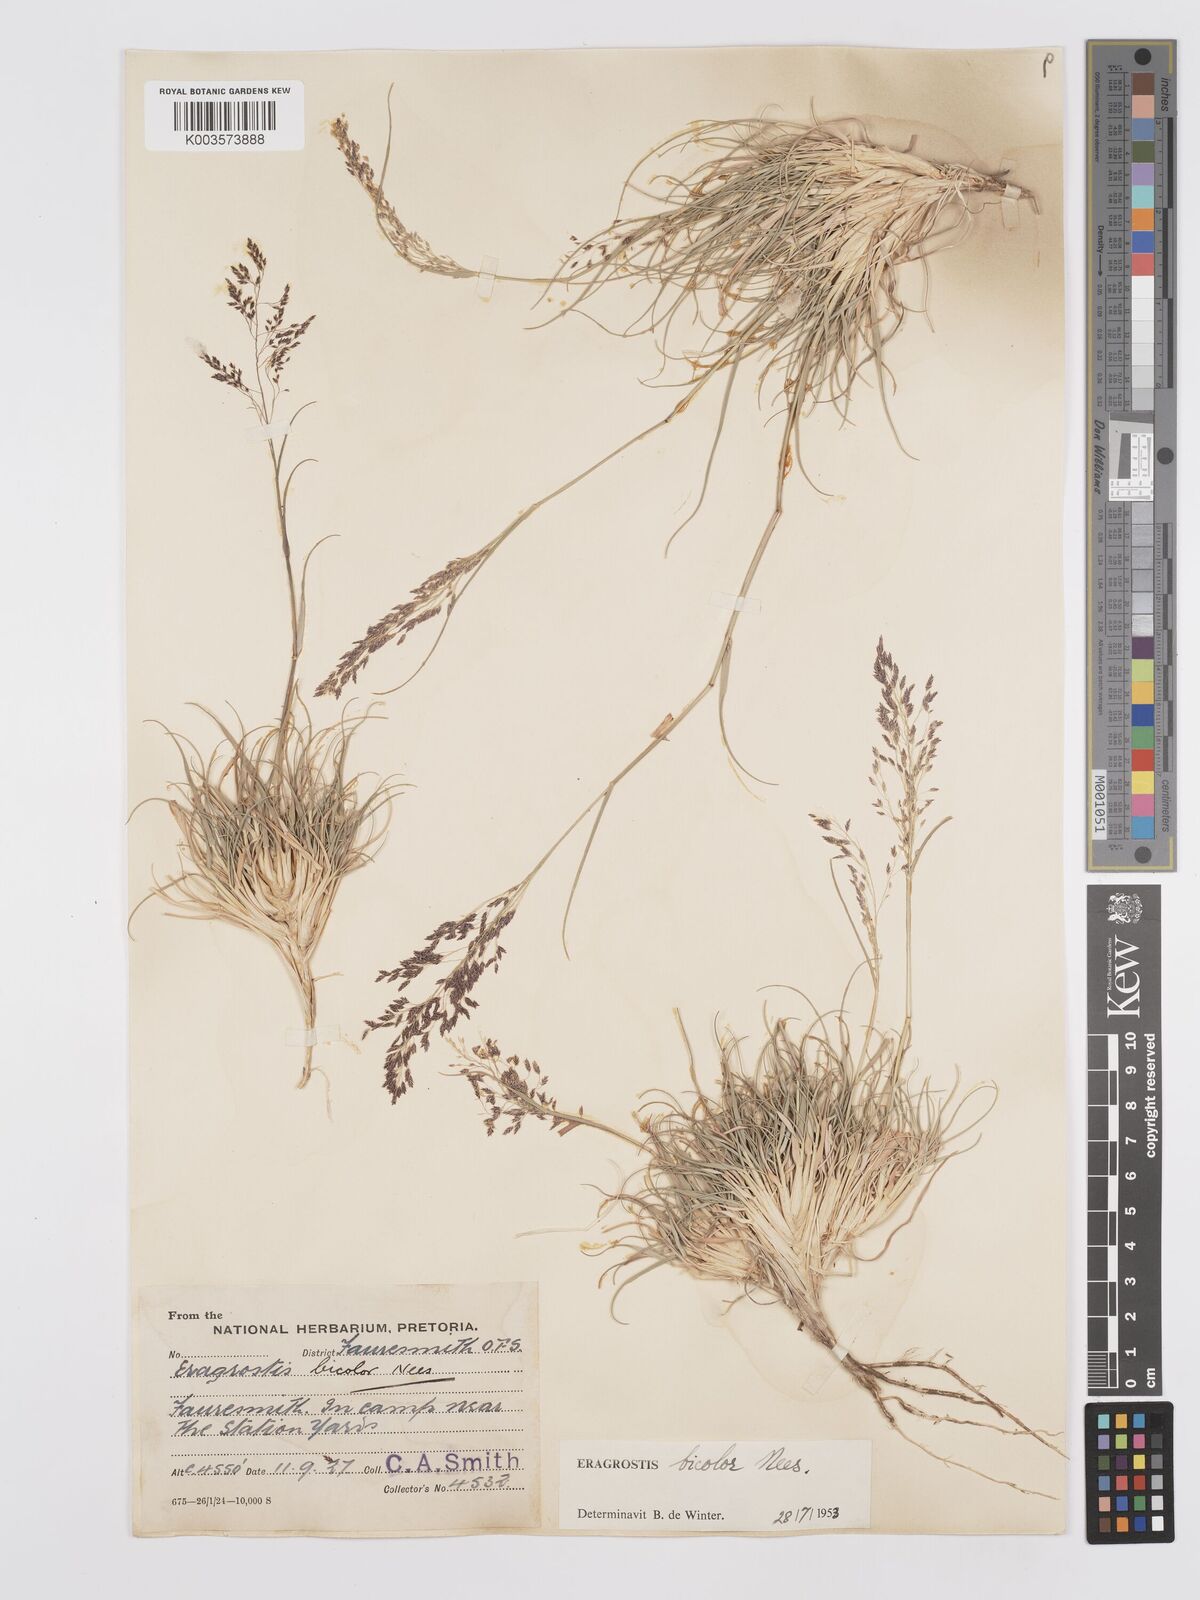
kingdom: Plantae
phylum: Tracheophyta
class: Liliopsida
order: Poales
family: Poaceae
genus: Eragrostis
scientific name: Eragrostis
